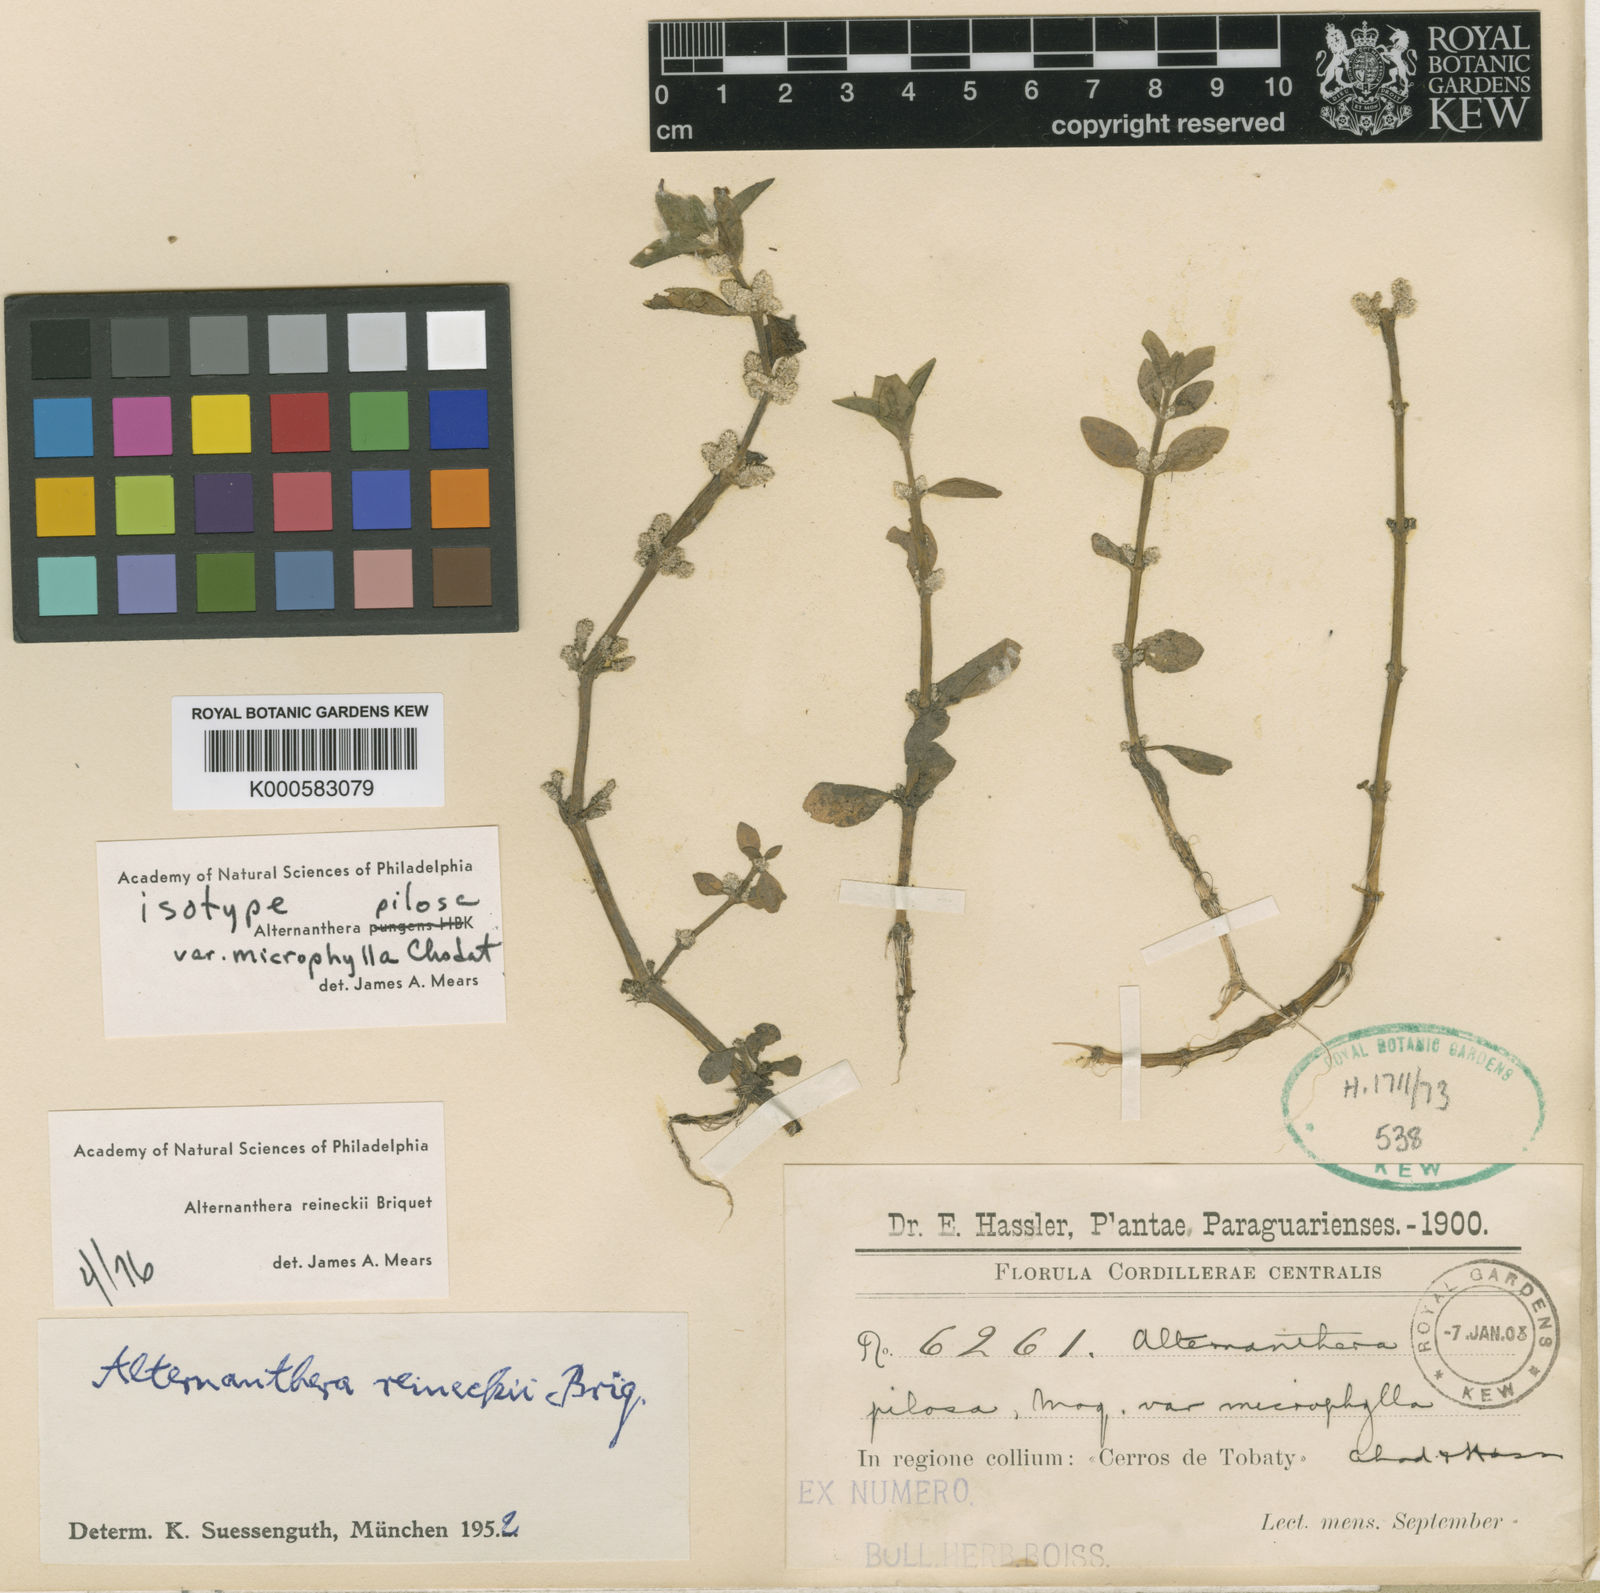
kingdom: Plantae
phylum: Tracheophyta
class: Magnoliopsida
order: Caryophyllales
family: Amaranthaceae
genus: Alternanthera
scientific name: Alternanthera reineckii
